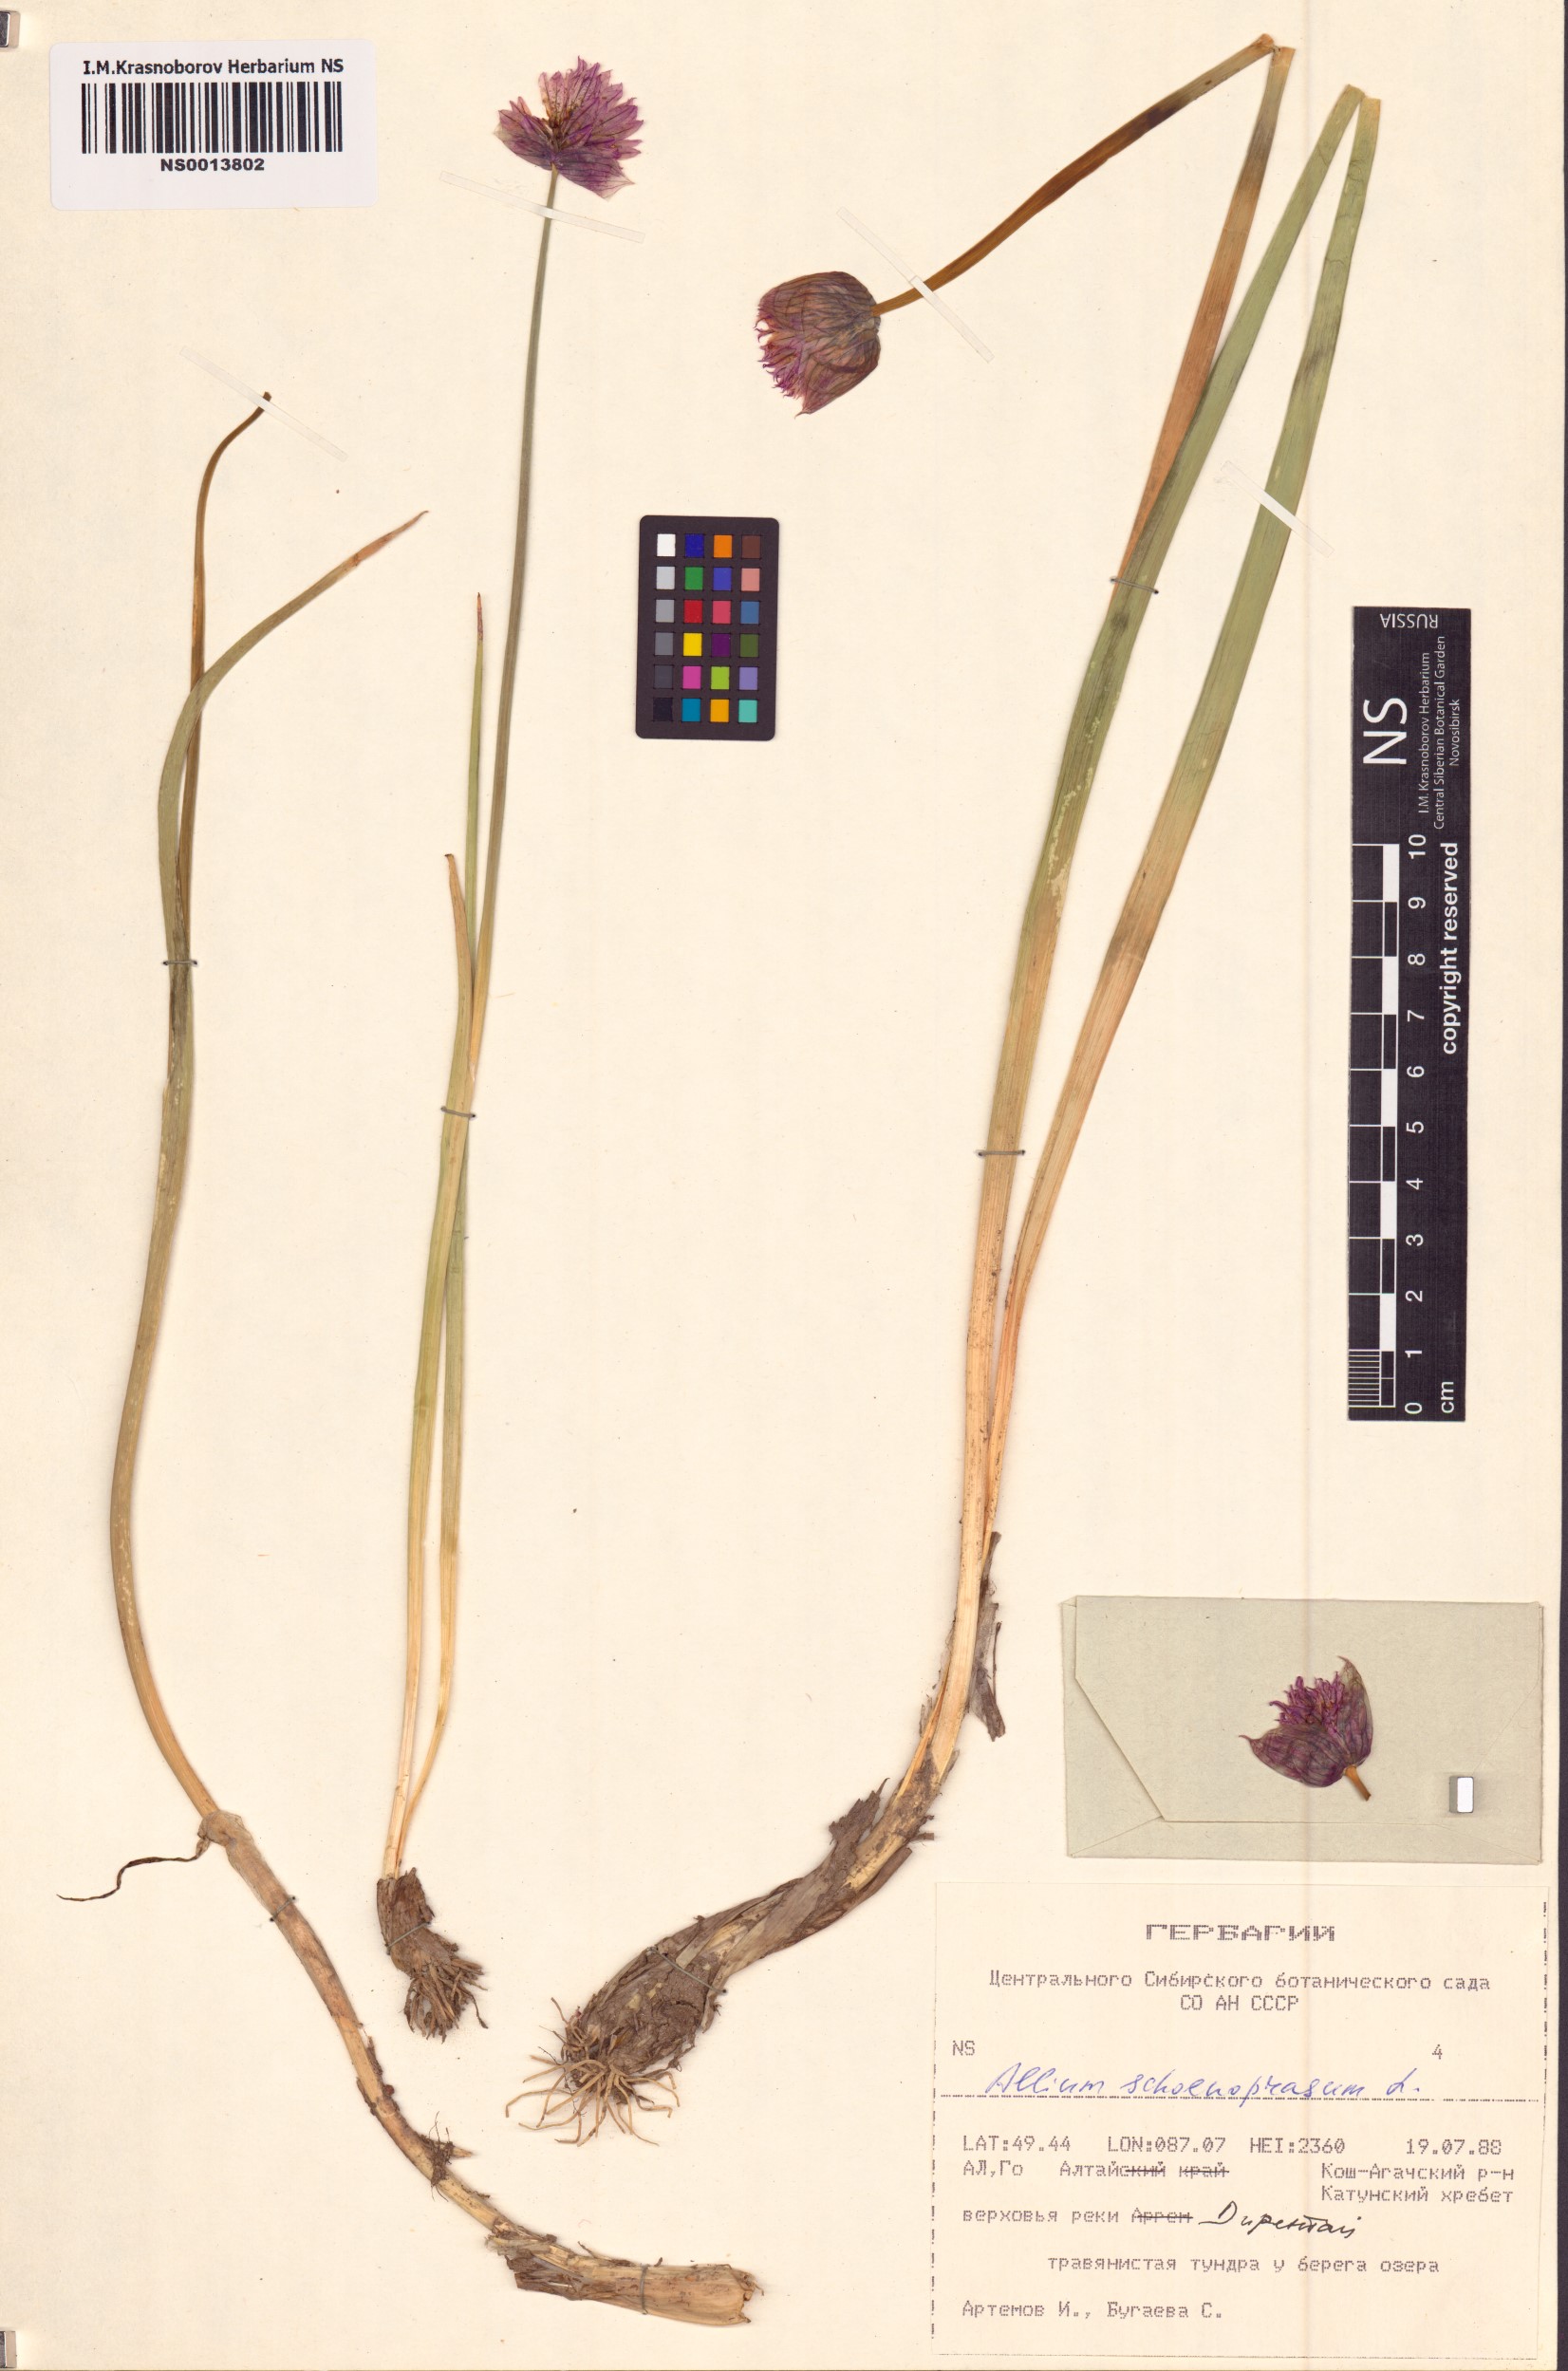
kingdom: Plantae
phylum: Tracheophyta
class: Liliopsida
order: Asparagales
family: Amaryllidaceae
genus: Allium
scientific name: Allium schoenoprasum
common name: Chives
